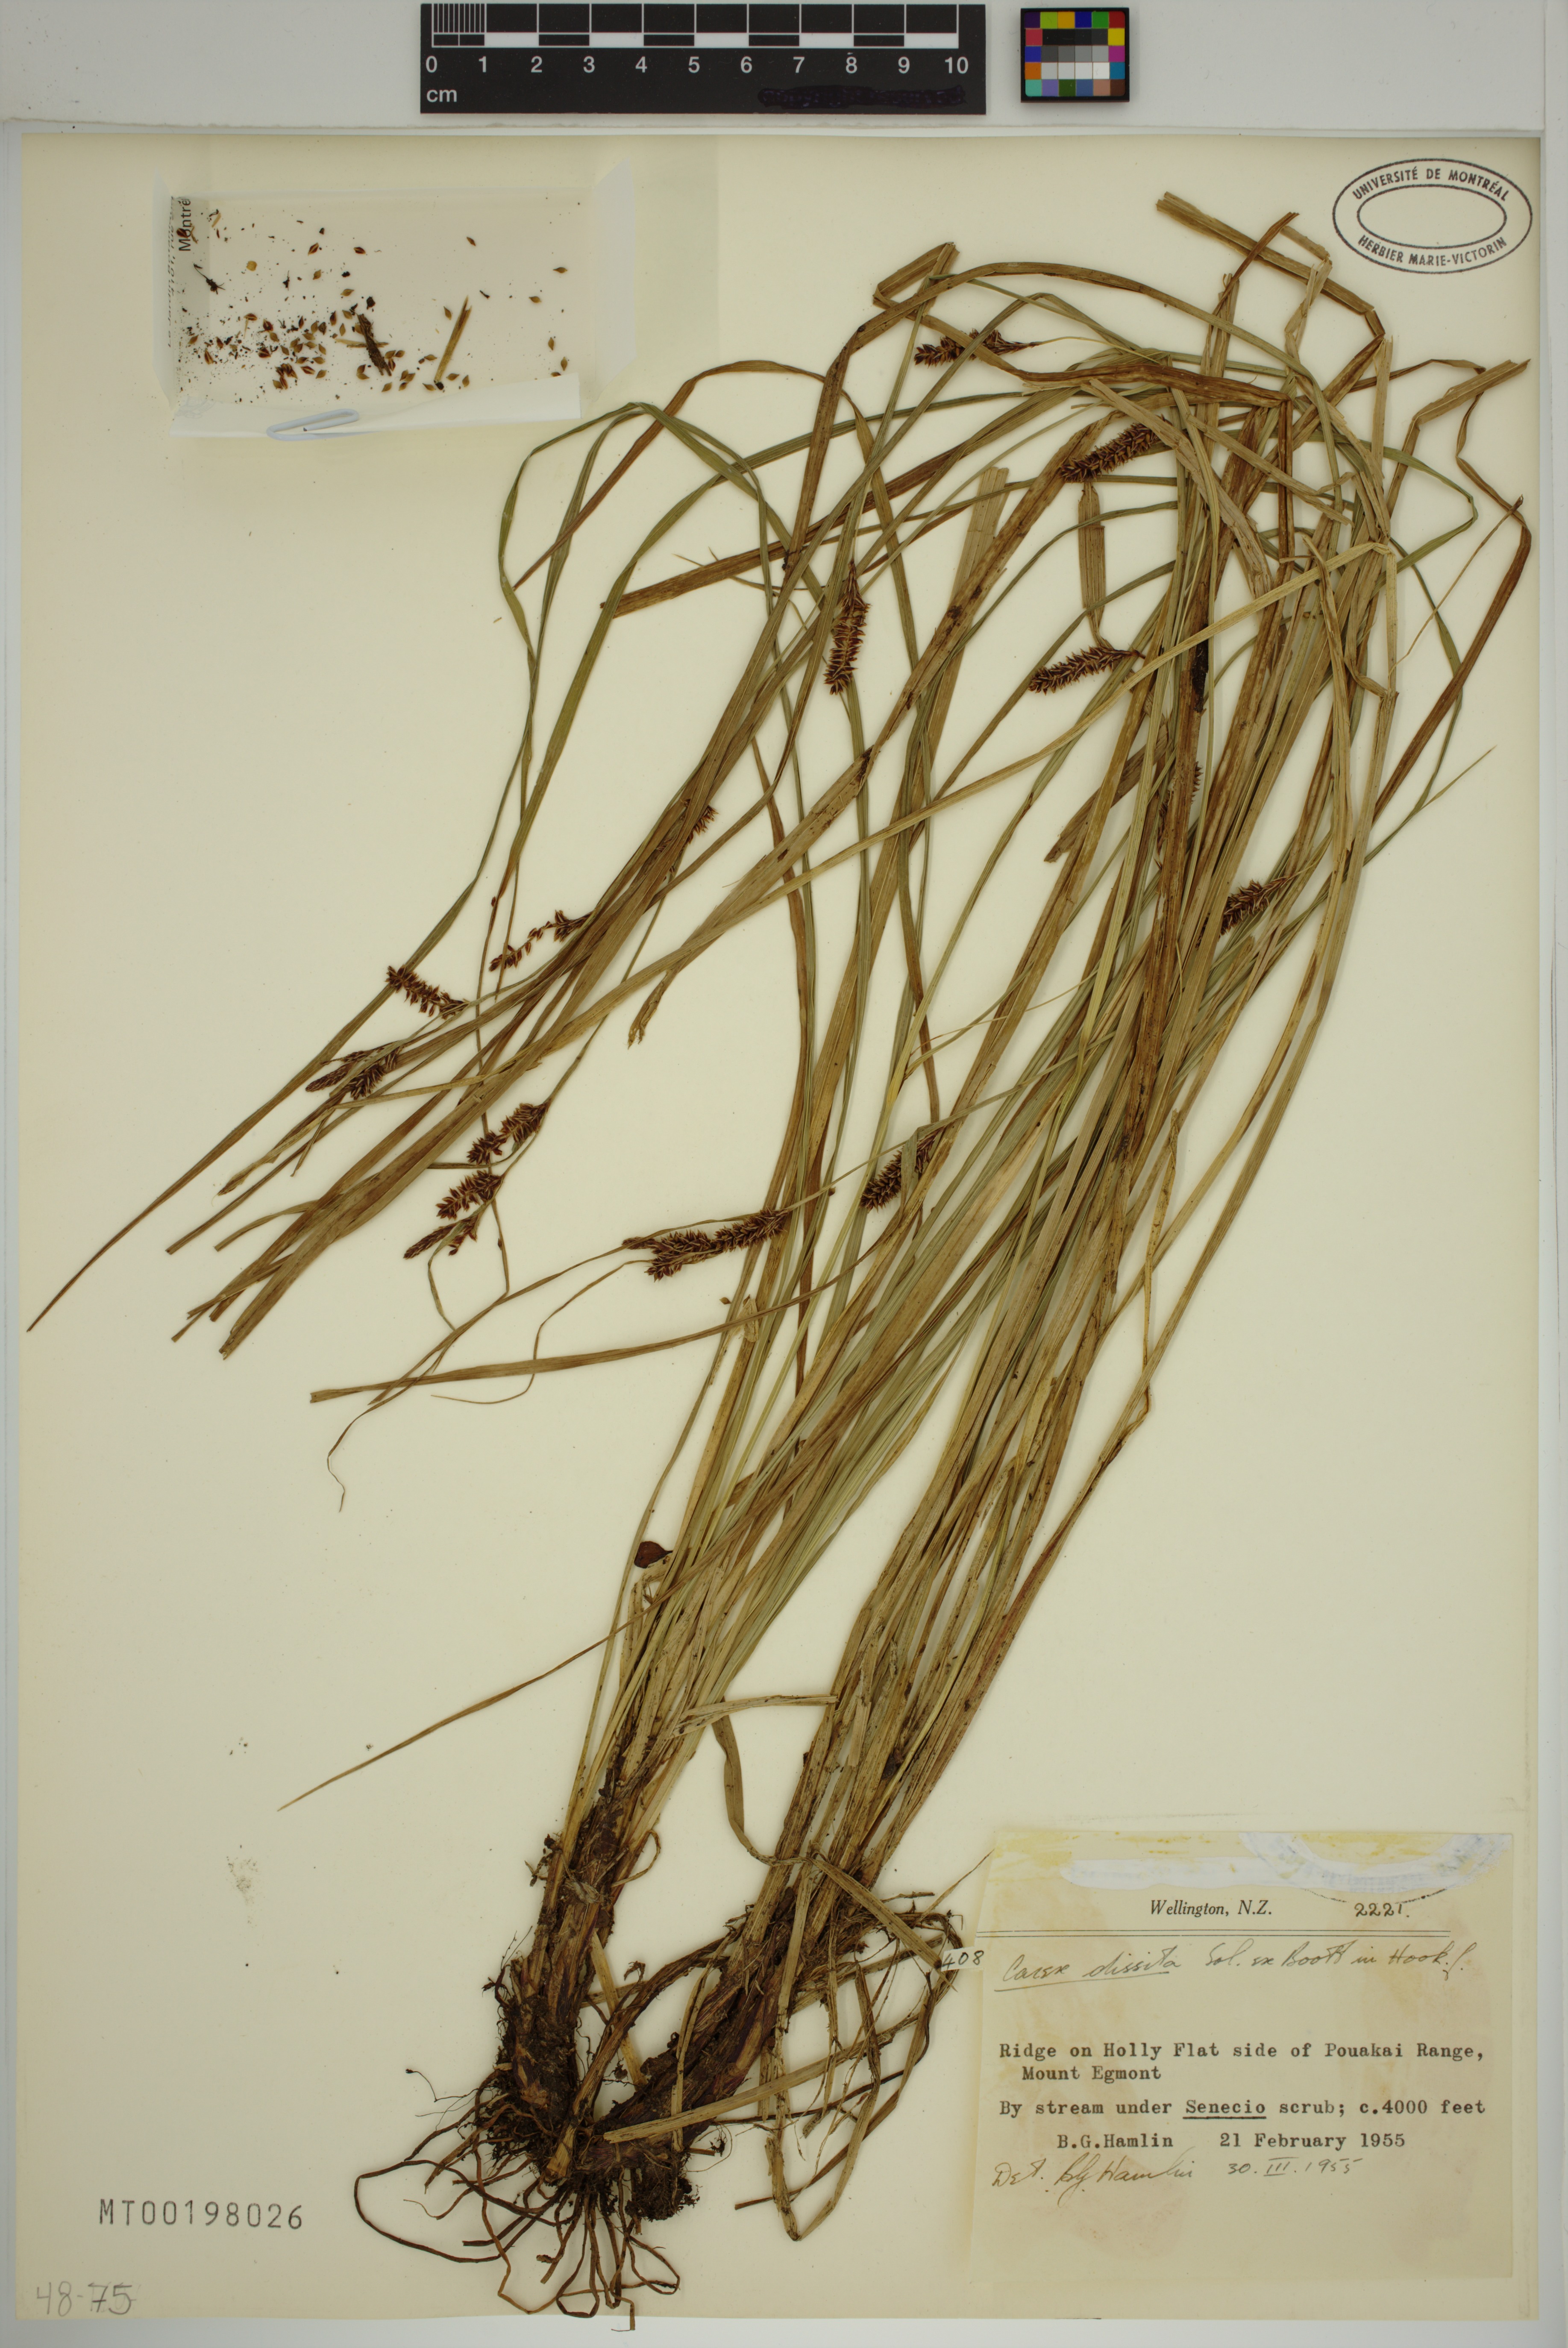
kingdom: Plantae
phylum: Tracheophyta
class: Liliopsida
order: Poales
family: Cyperaceae
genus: Carex
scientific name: Carex dissita
